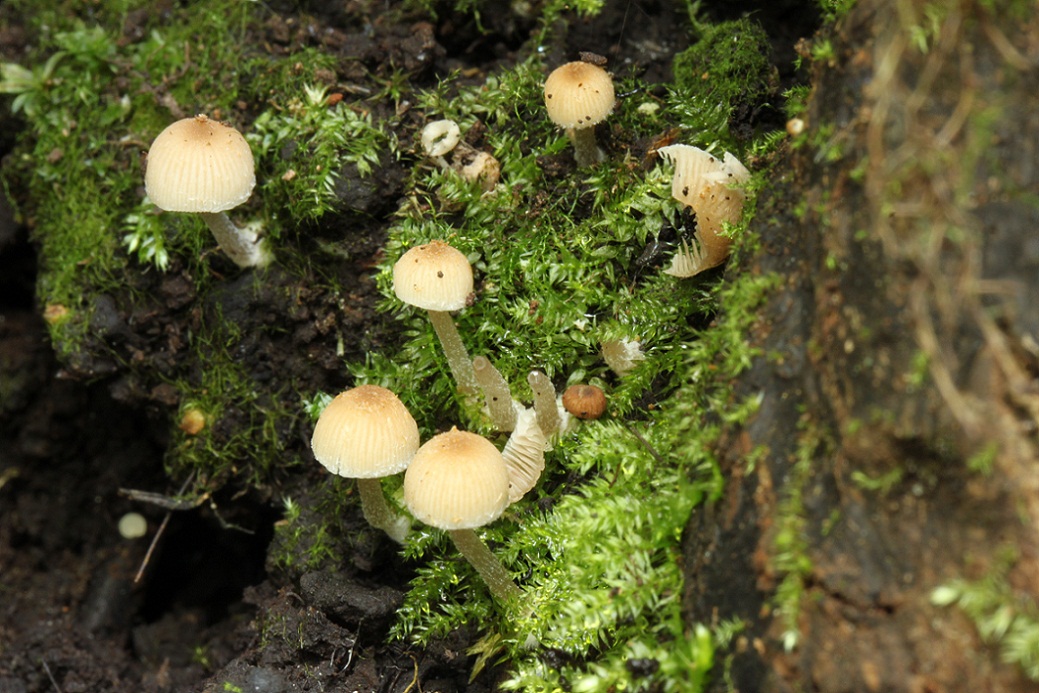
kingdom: Fungi
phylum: Basidiomycota
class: Agaricomycetes
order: Agaricales
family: Psathyrellaceae
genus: Psathyrella
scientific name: Psathyrella pygmaea
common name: dværg-mørkhat
